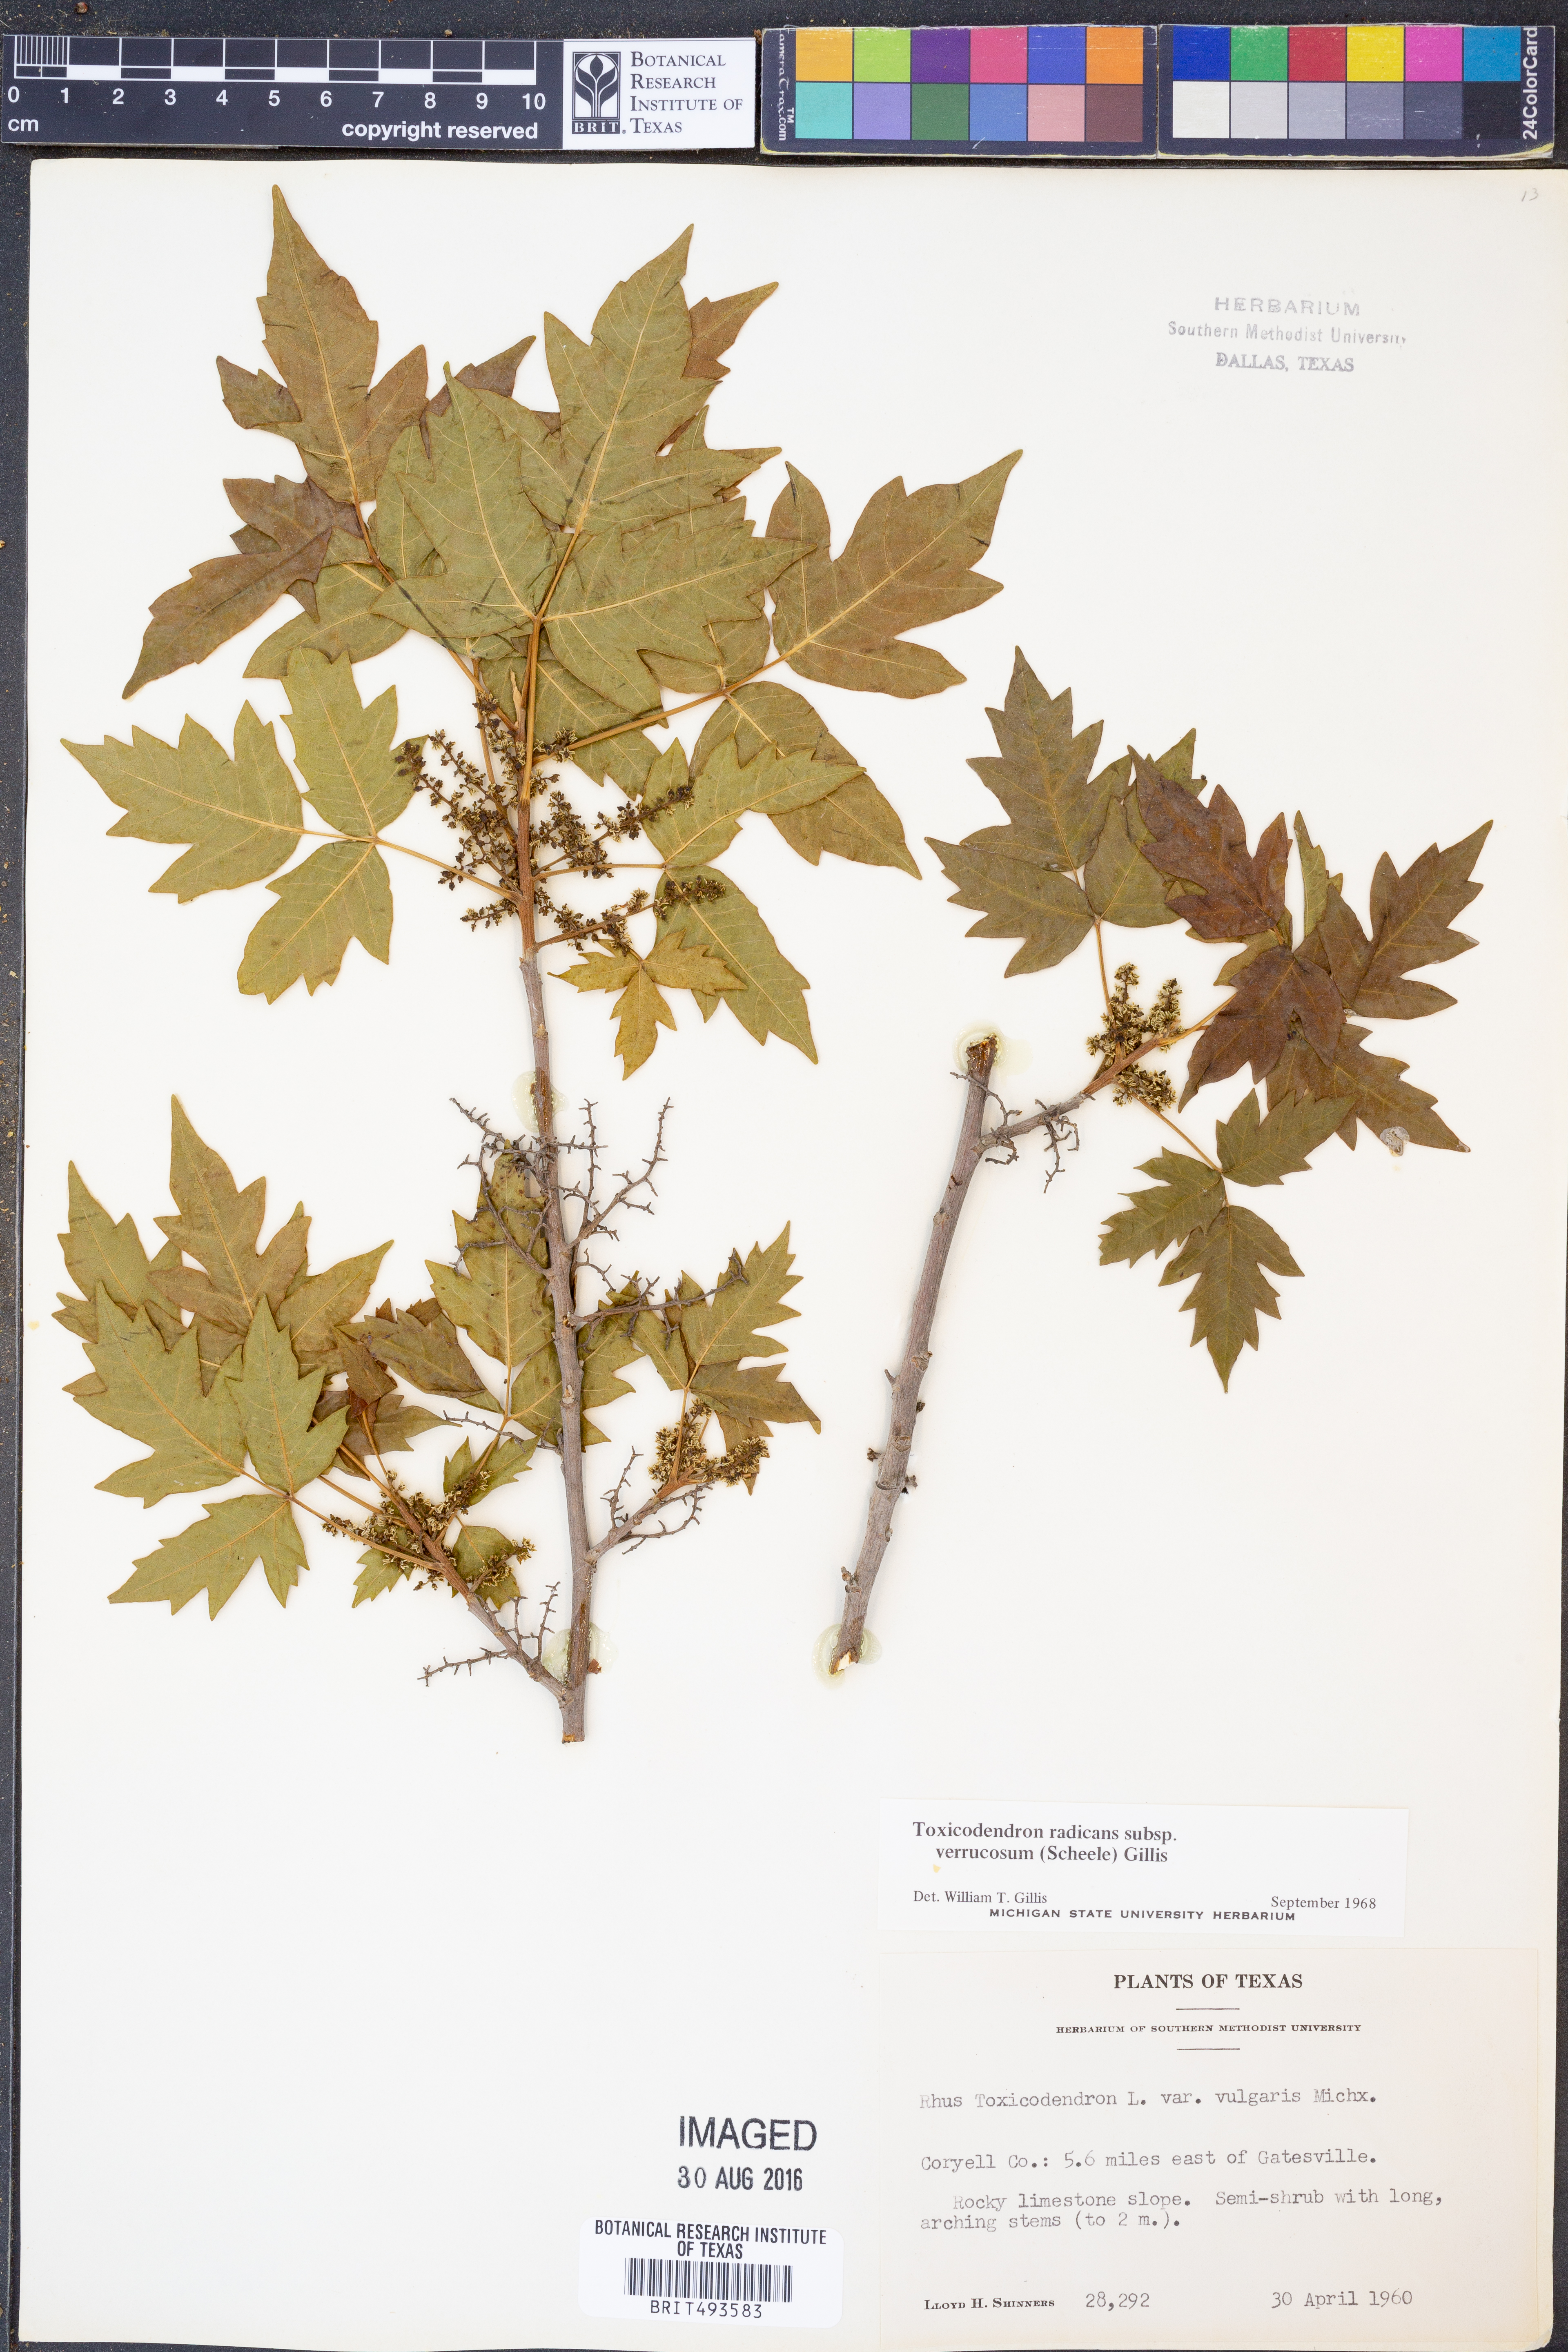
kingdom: Plantae
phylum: Tracheophyta
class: Magnoliopsida
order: Sapindales
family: Anacardiaceae
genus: Toxicodendron
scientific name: Toxicodendron radicans
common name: Poison ivy
